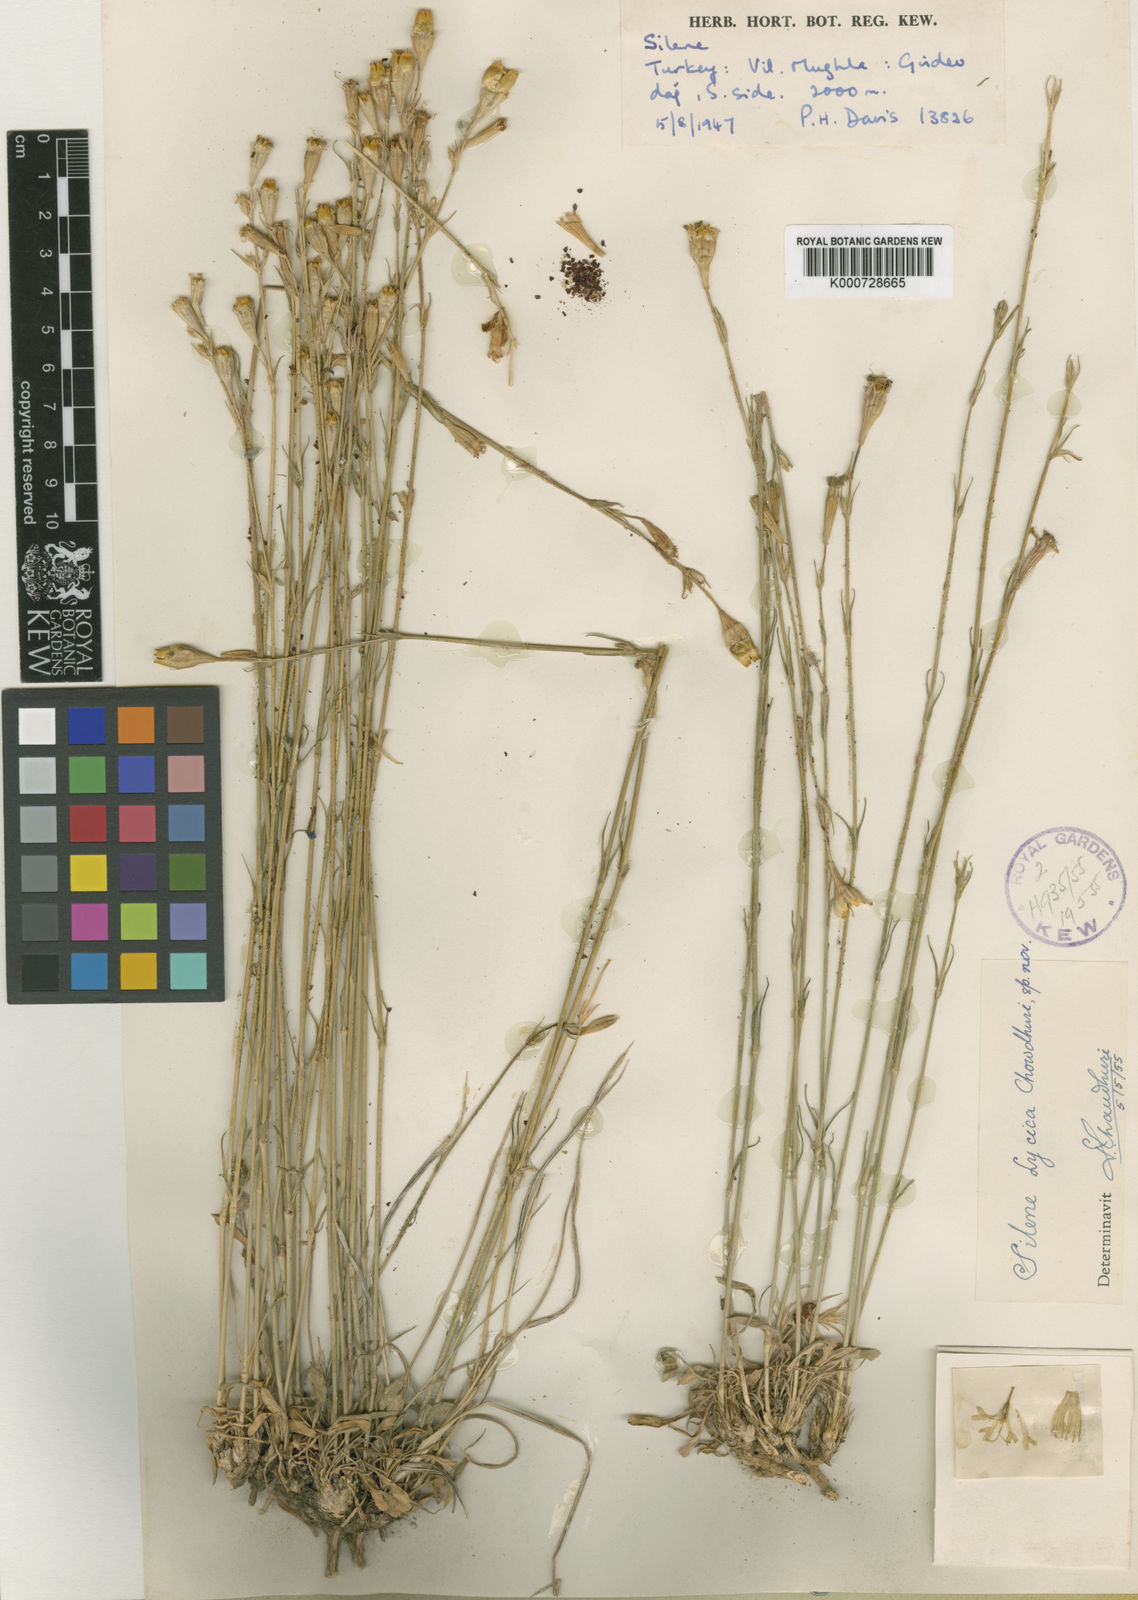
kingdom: Plantae
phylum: Tracheophyta
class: Magnoliopsida
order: Caryophyllales
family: Caryophyllaceae
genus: Silene
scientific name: Silene armena
